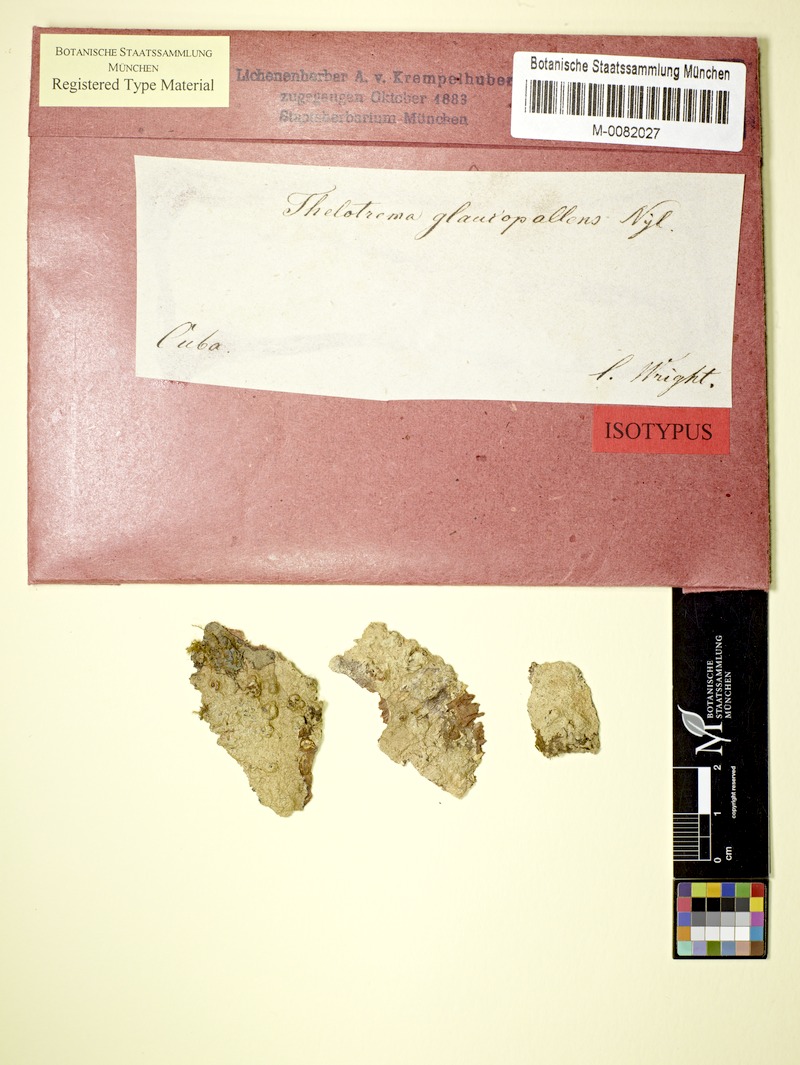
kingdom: Fungi
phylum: Ascomycota
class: Lecanoromycetes
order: Ostropales
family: Graphidaceae
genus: Wirthiotrema
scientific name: Wirthiotrema glaucopallens
